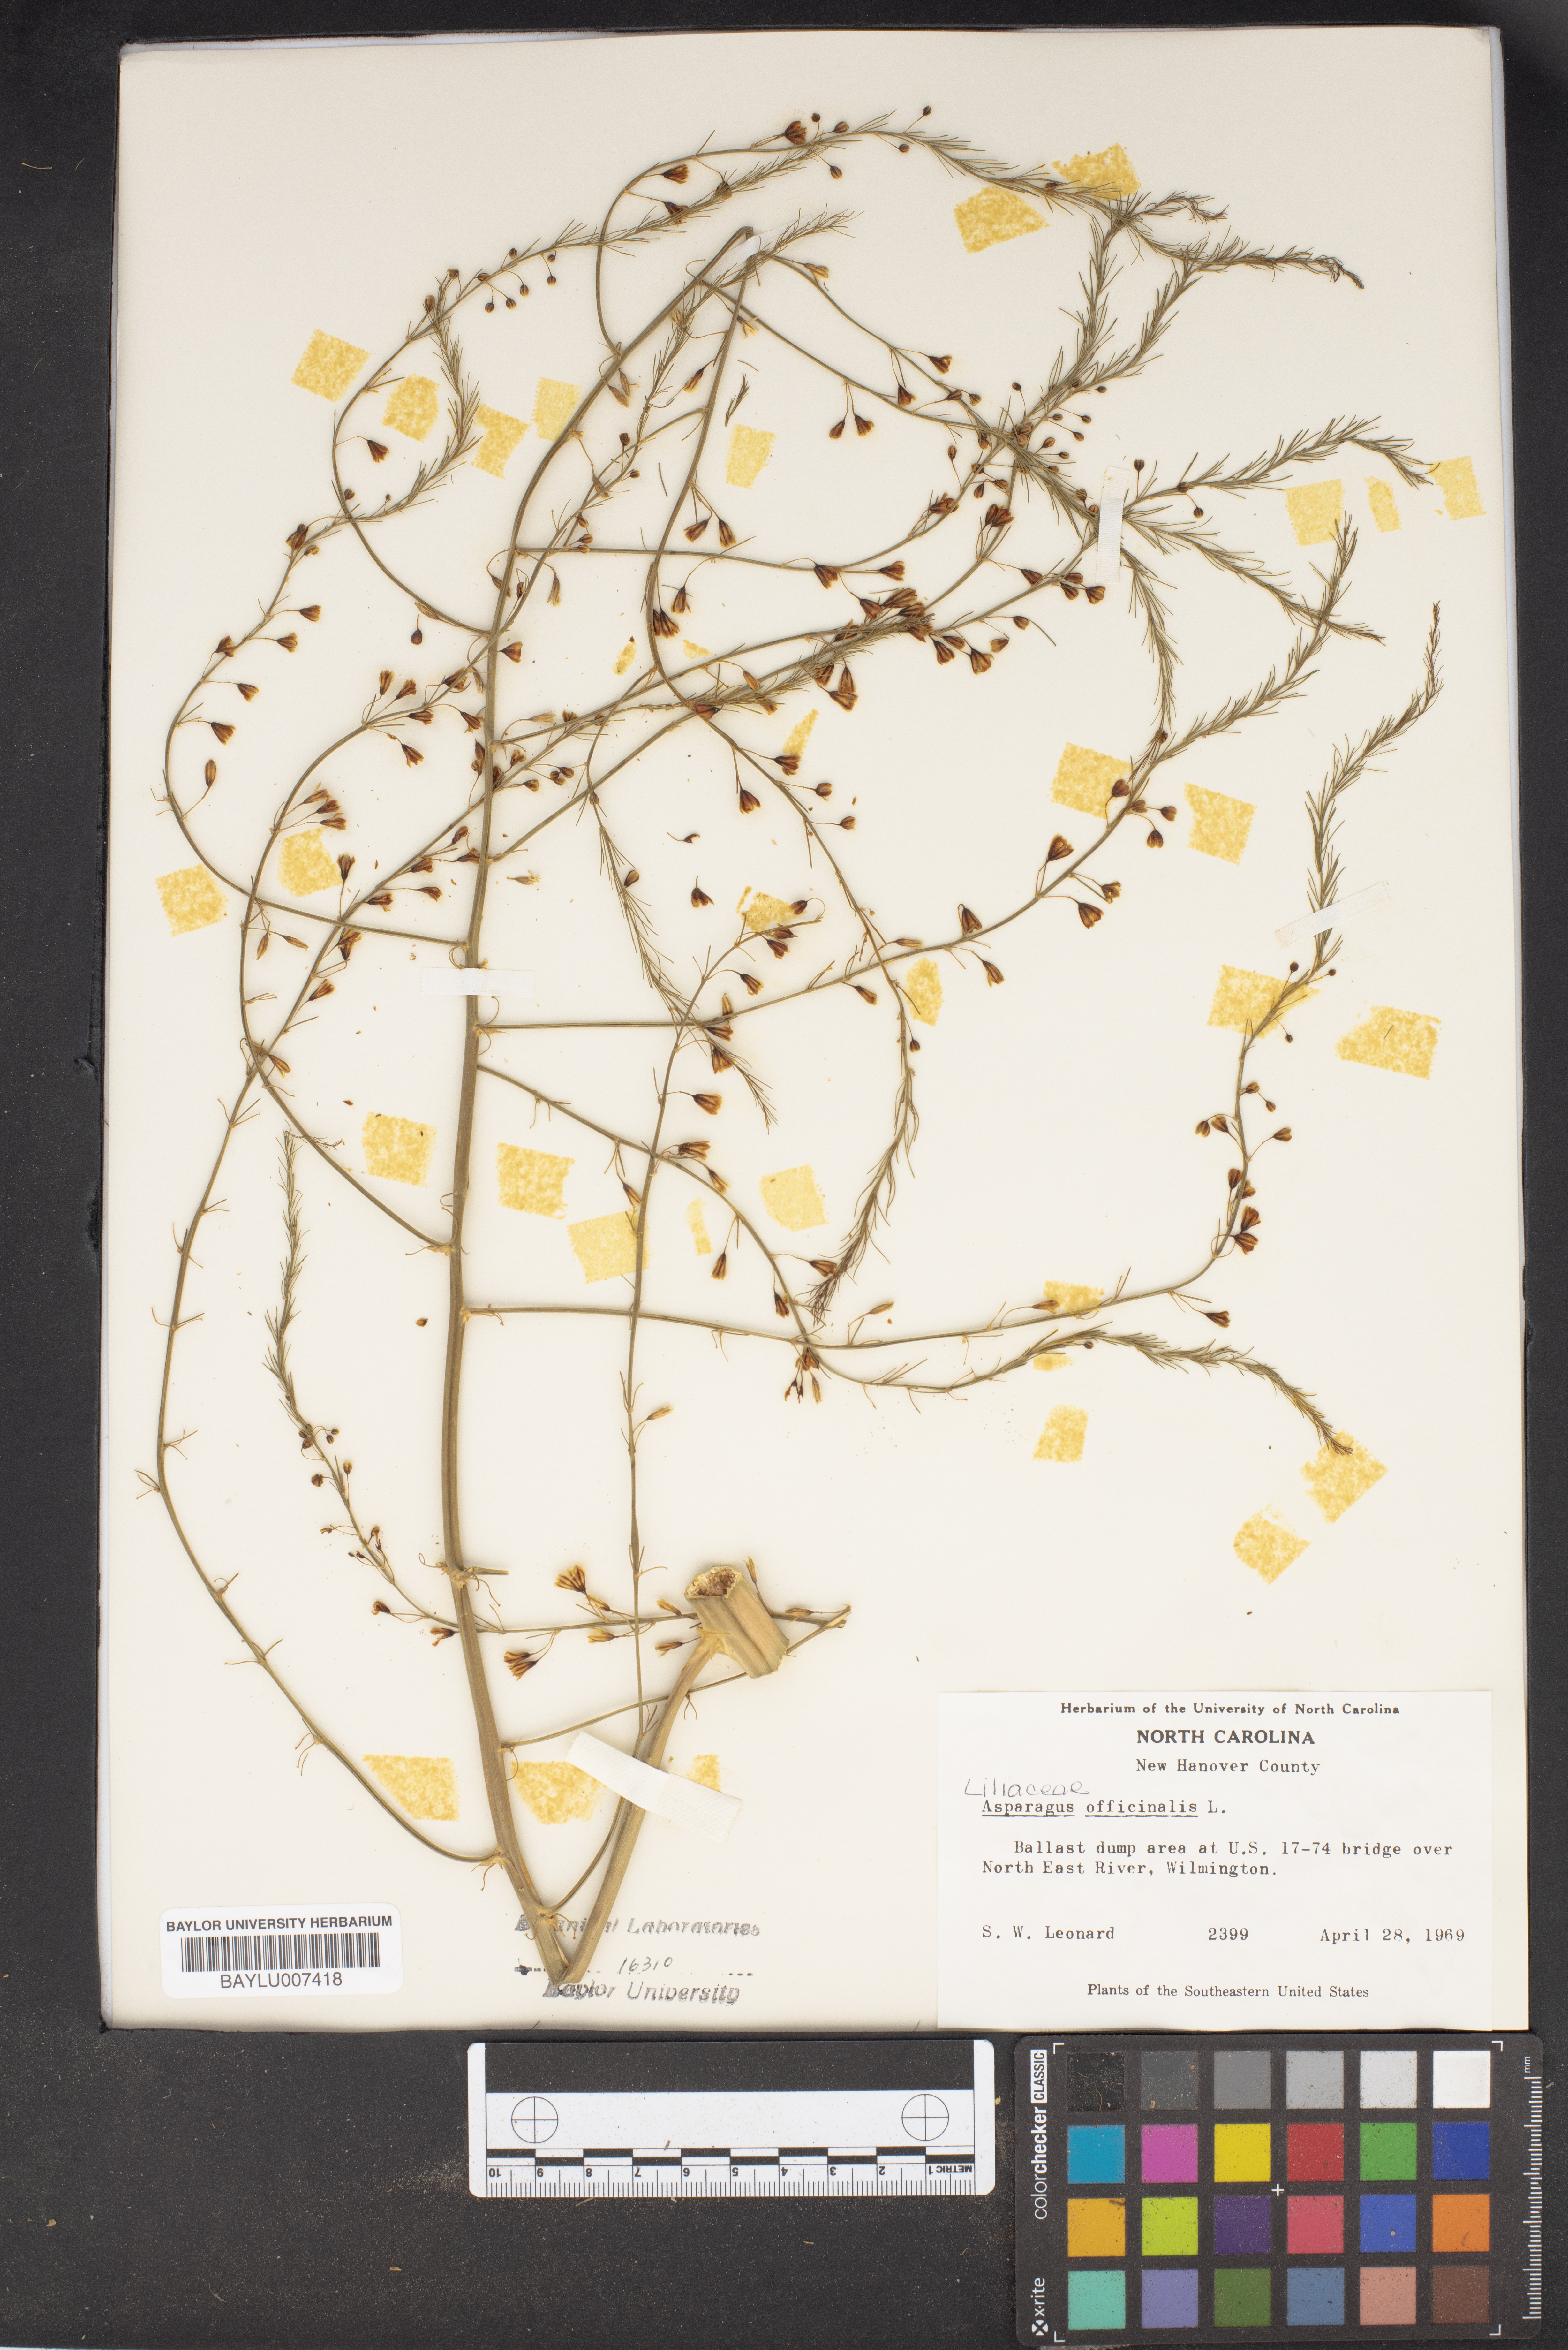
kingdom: Plantae
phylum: Tracheophyta
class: Liliopsida
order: Asparagales
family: Asparagaceae
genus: Asparagus
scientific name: Asparagus officinalis
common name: Garden asparagus
